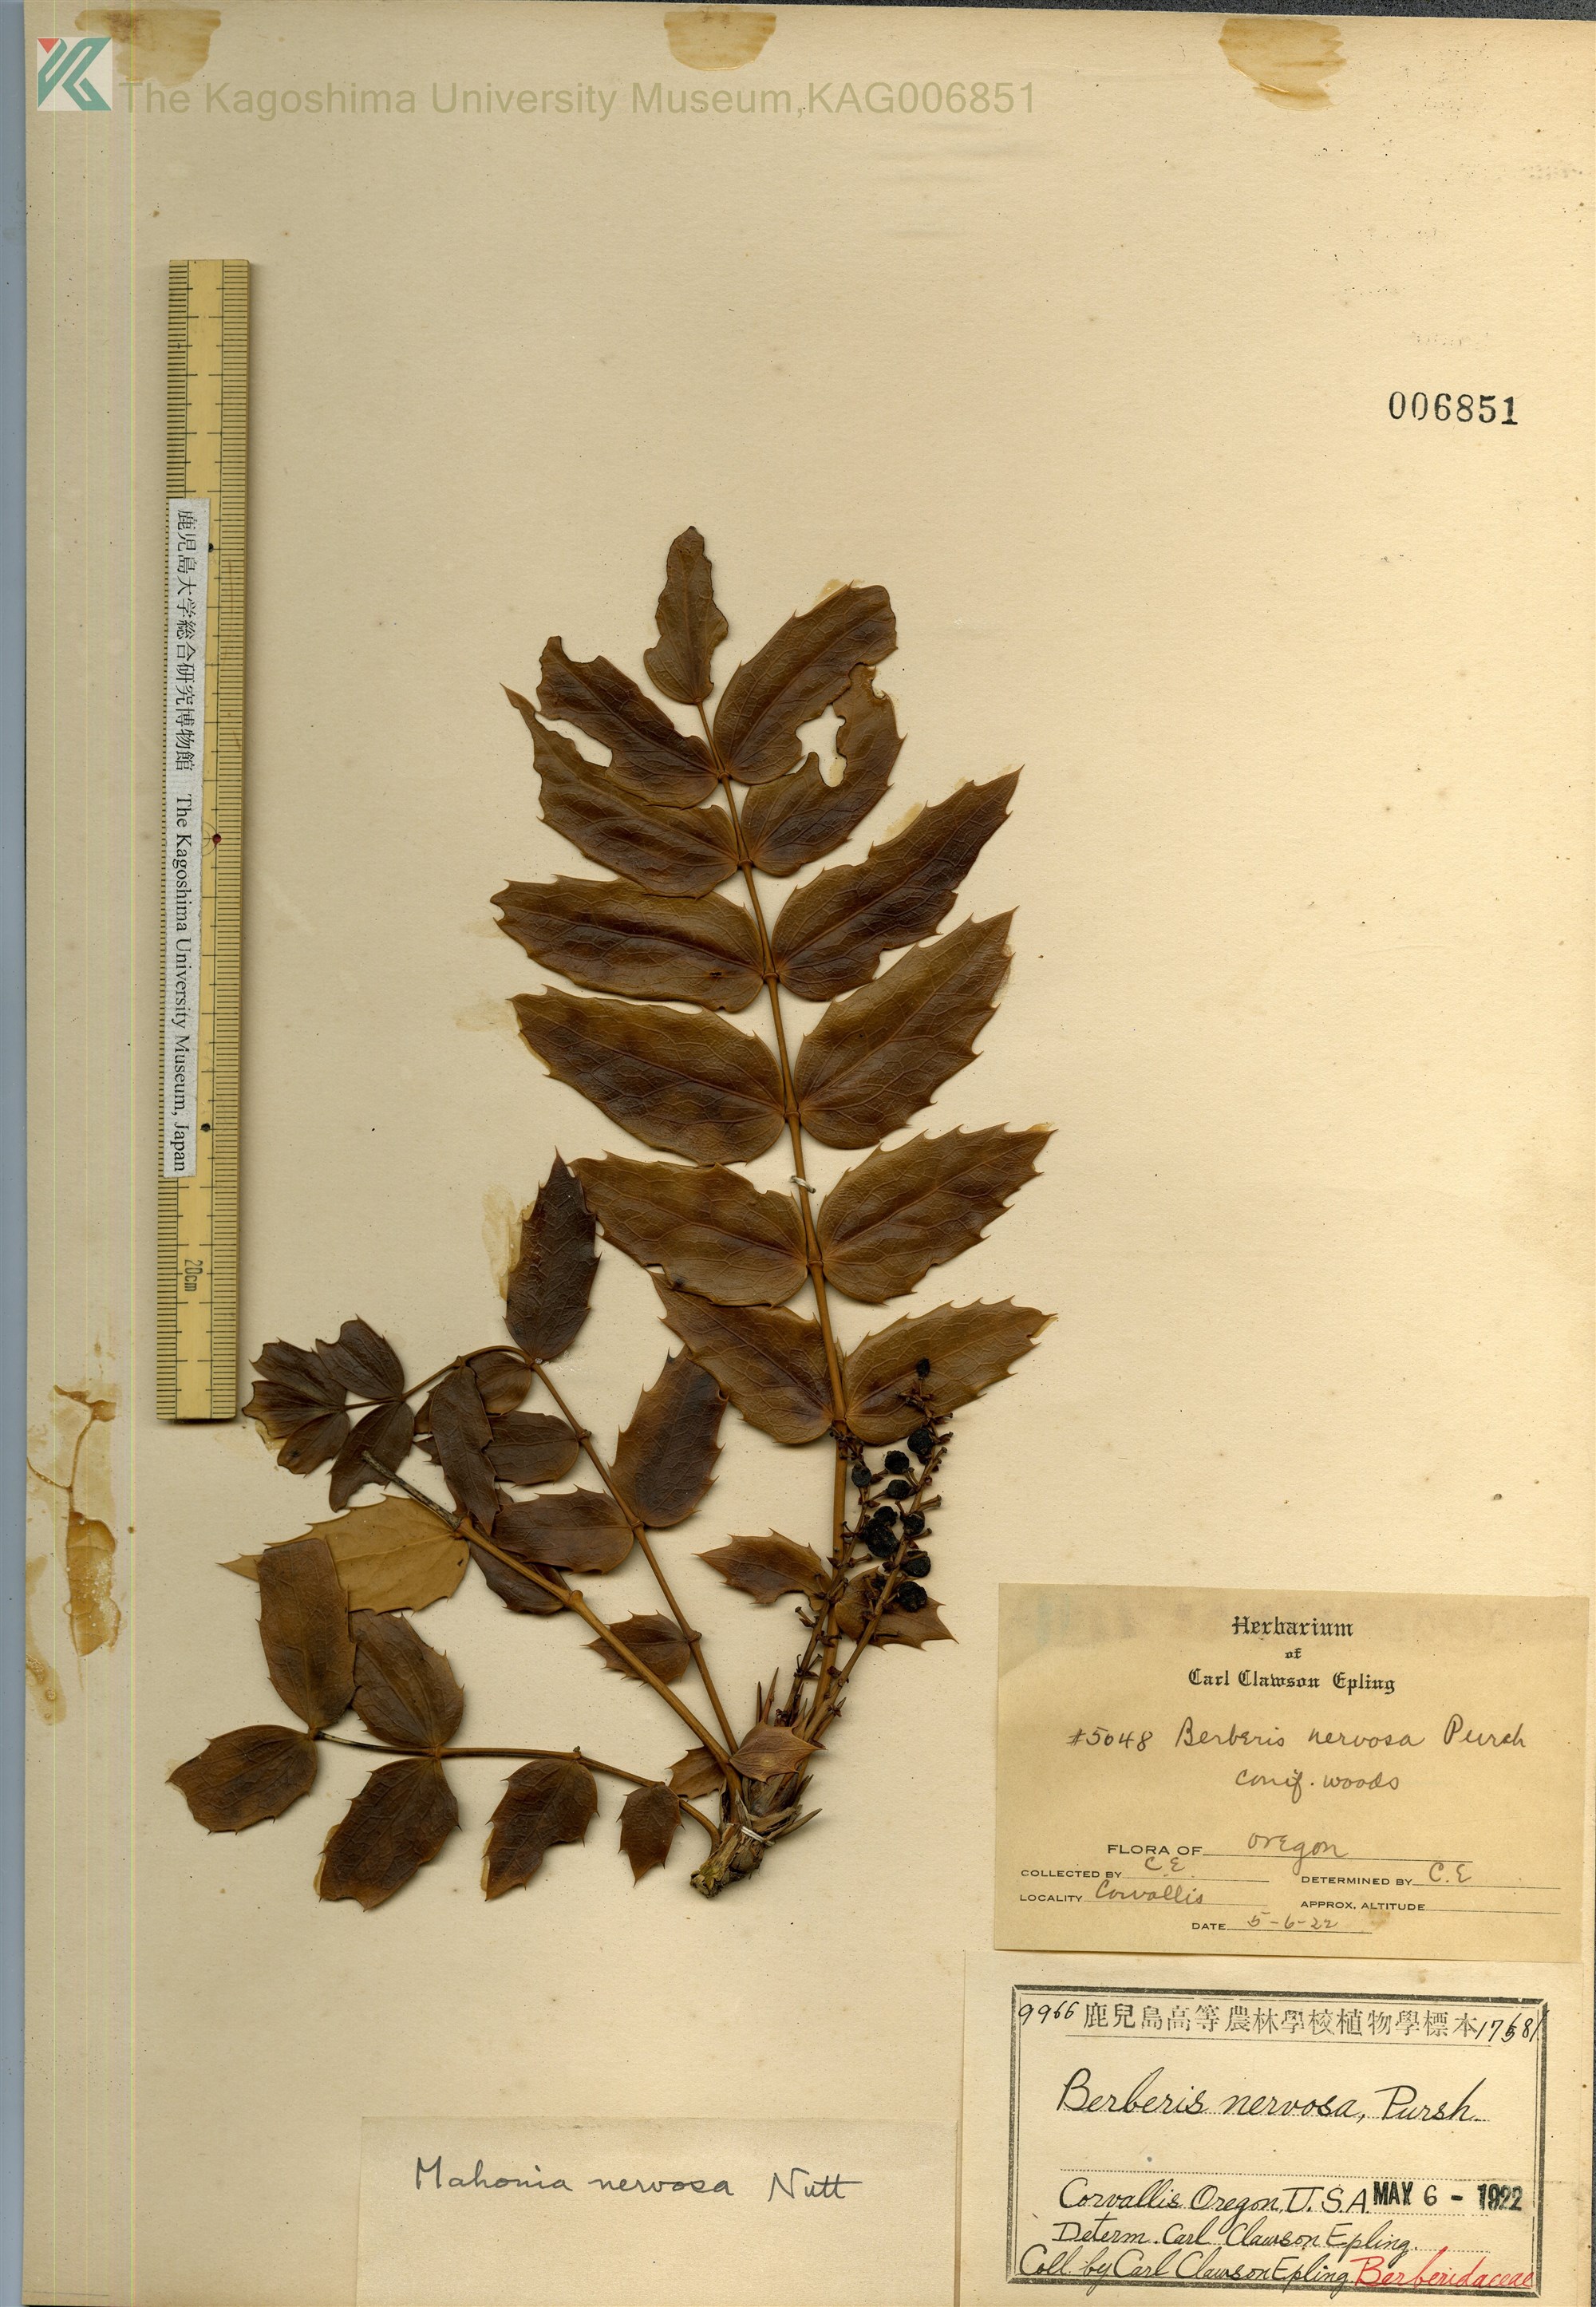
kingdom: Plantae
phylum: Tracheophyta
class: Magnoliopsida
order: Ranunculales
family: Berberidaceae
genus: Mahonia
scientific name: Mahonia nervosa
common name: Cascade oregon-grape
